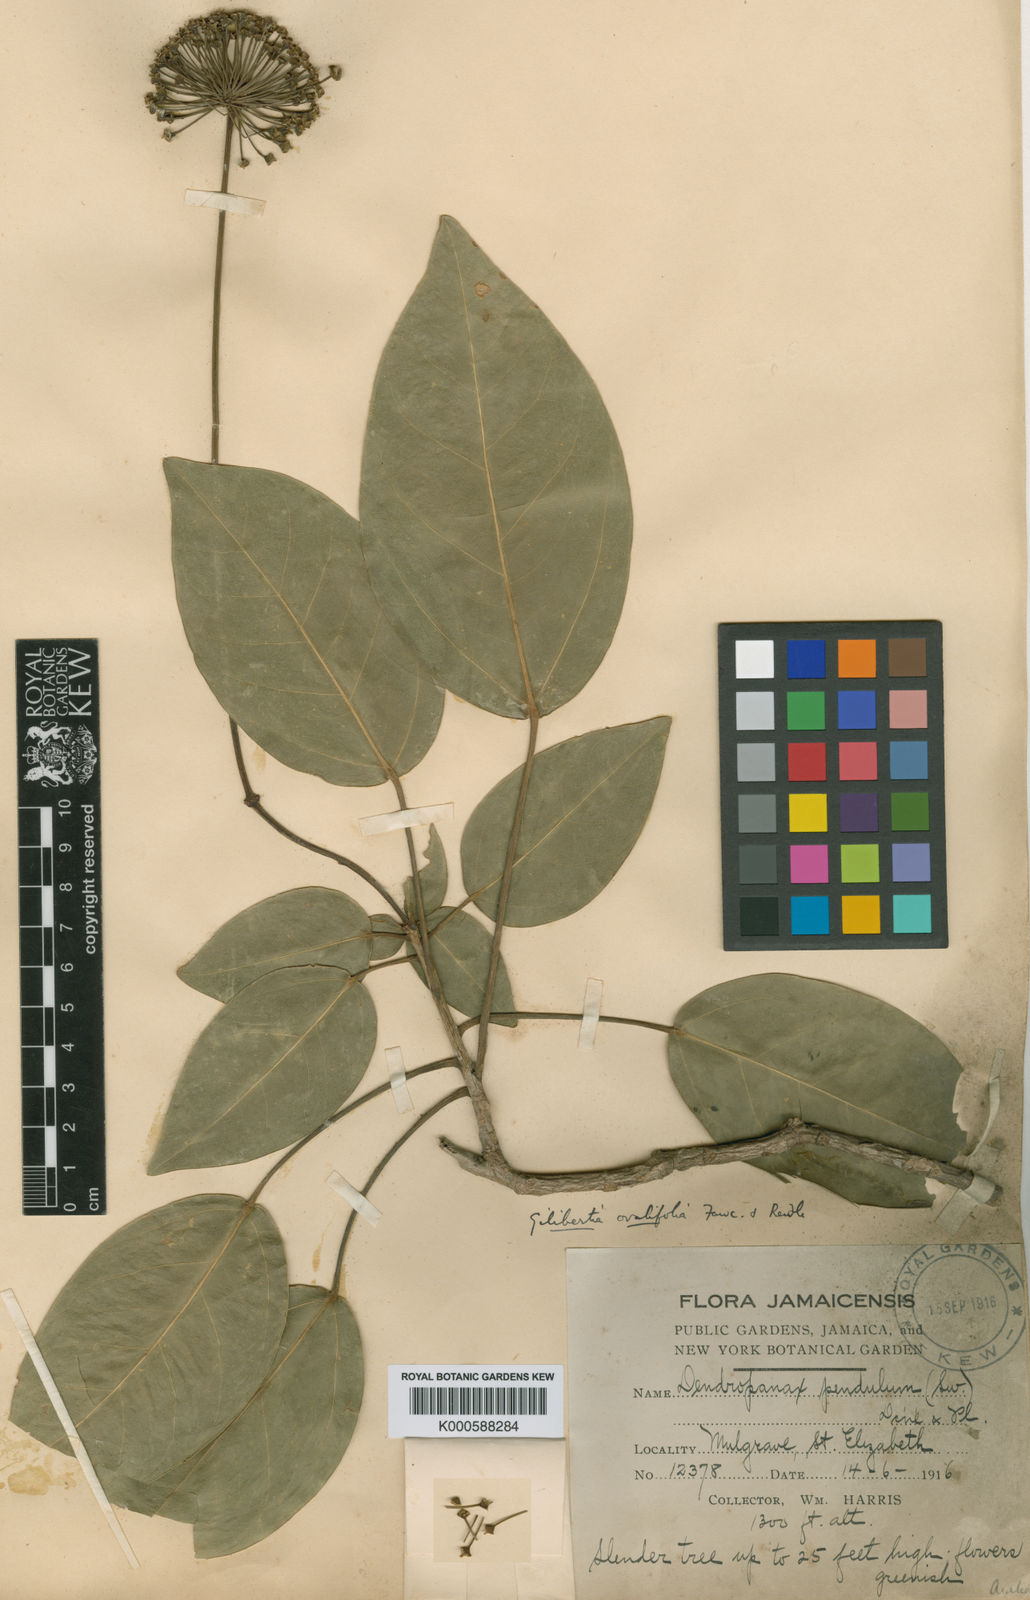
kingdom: Plantae
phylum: Tracheophyta
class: Magnoliopsida
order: Apiales
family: Araliaceae
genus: Dendropanax
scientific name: Dendropanax pendulus
